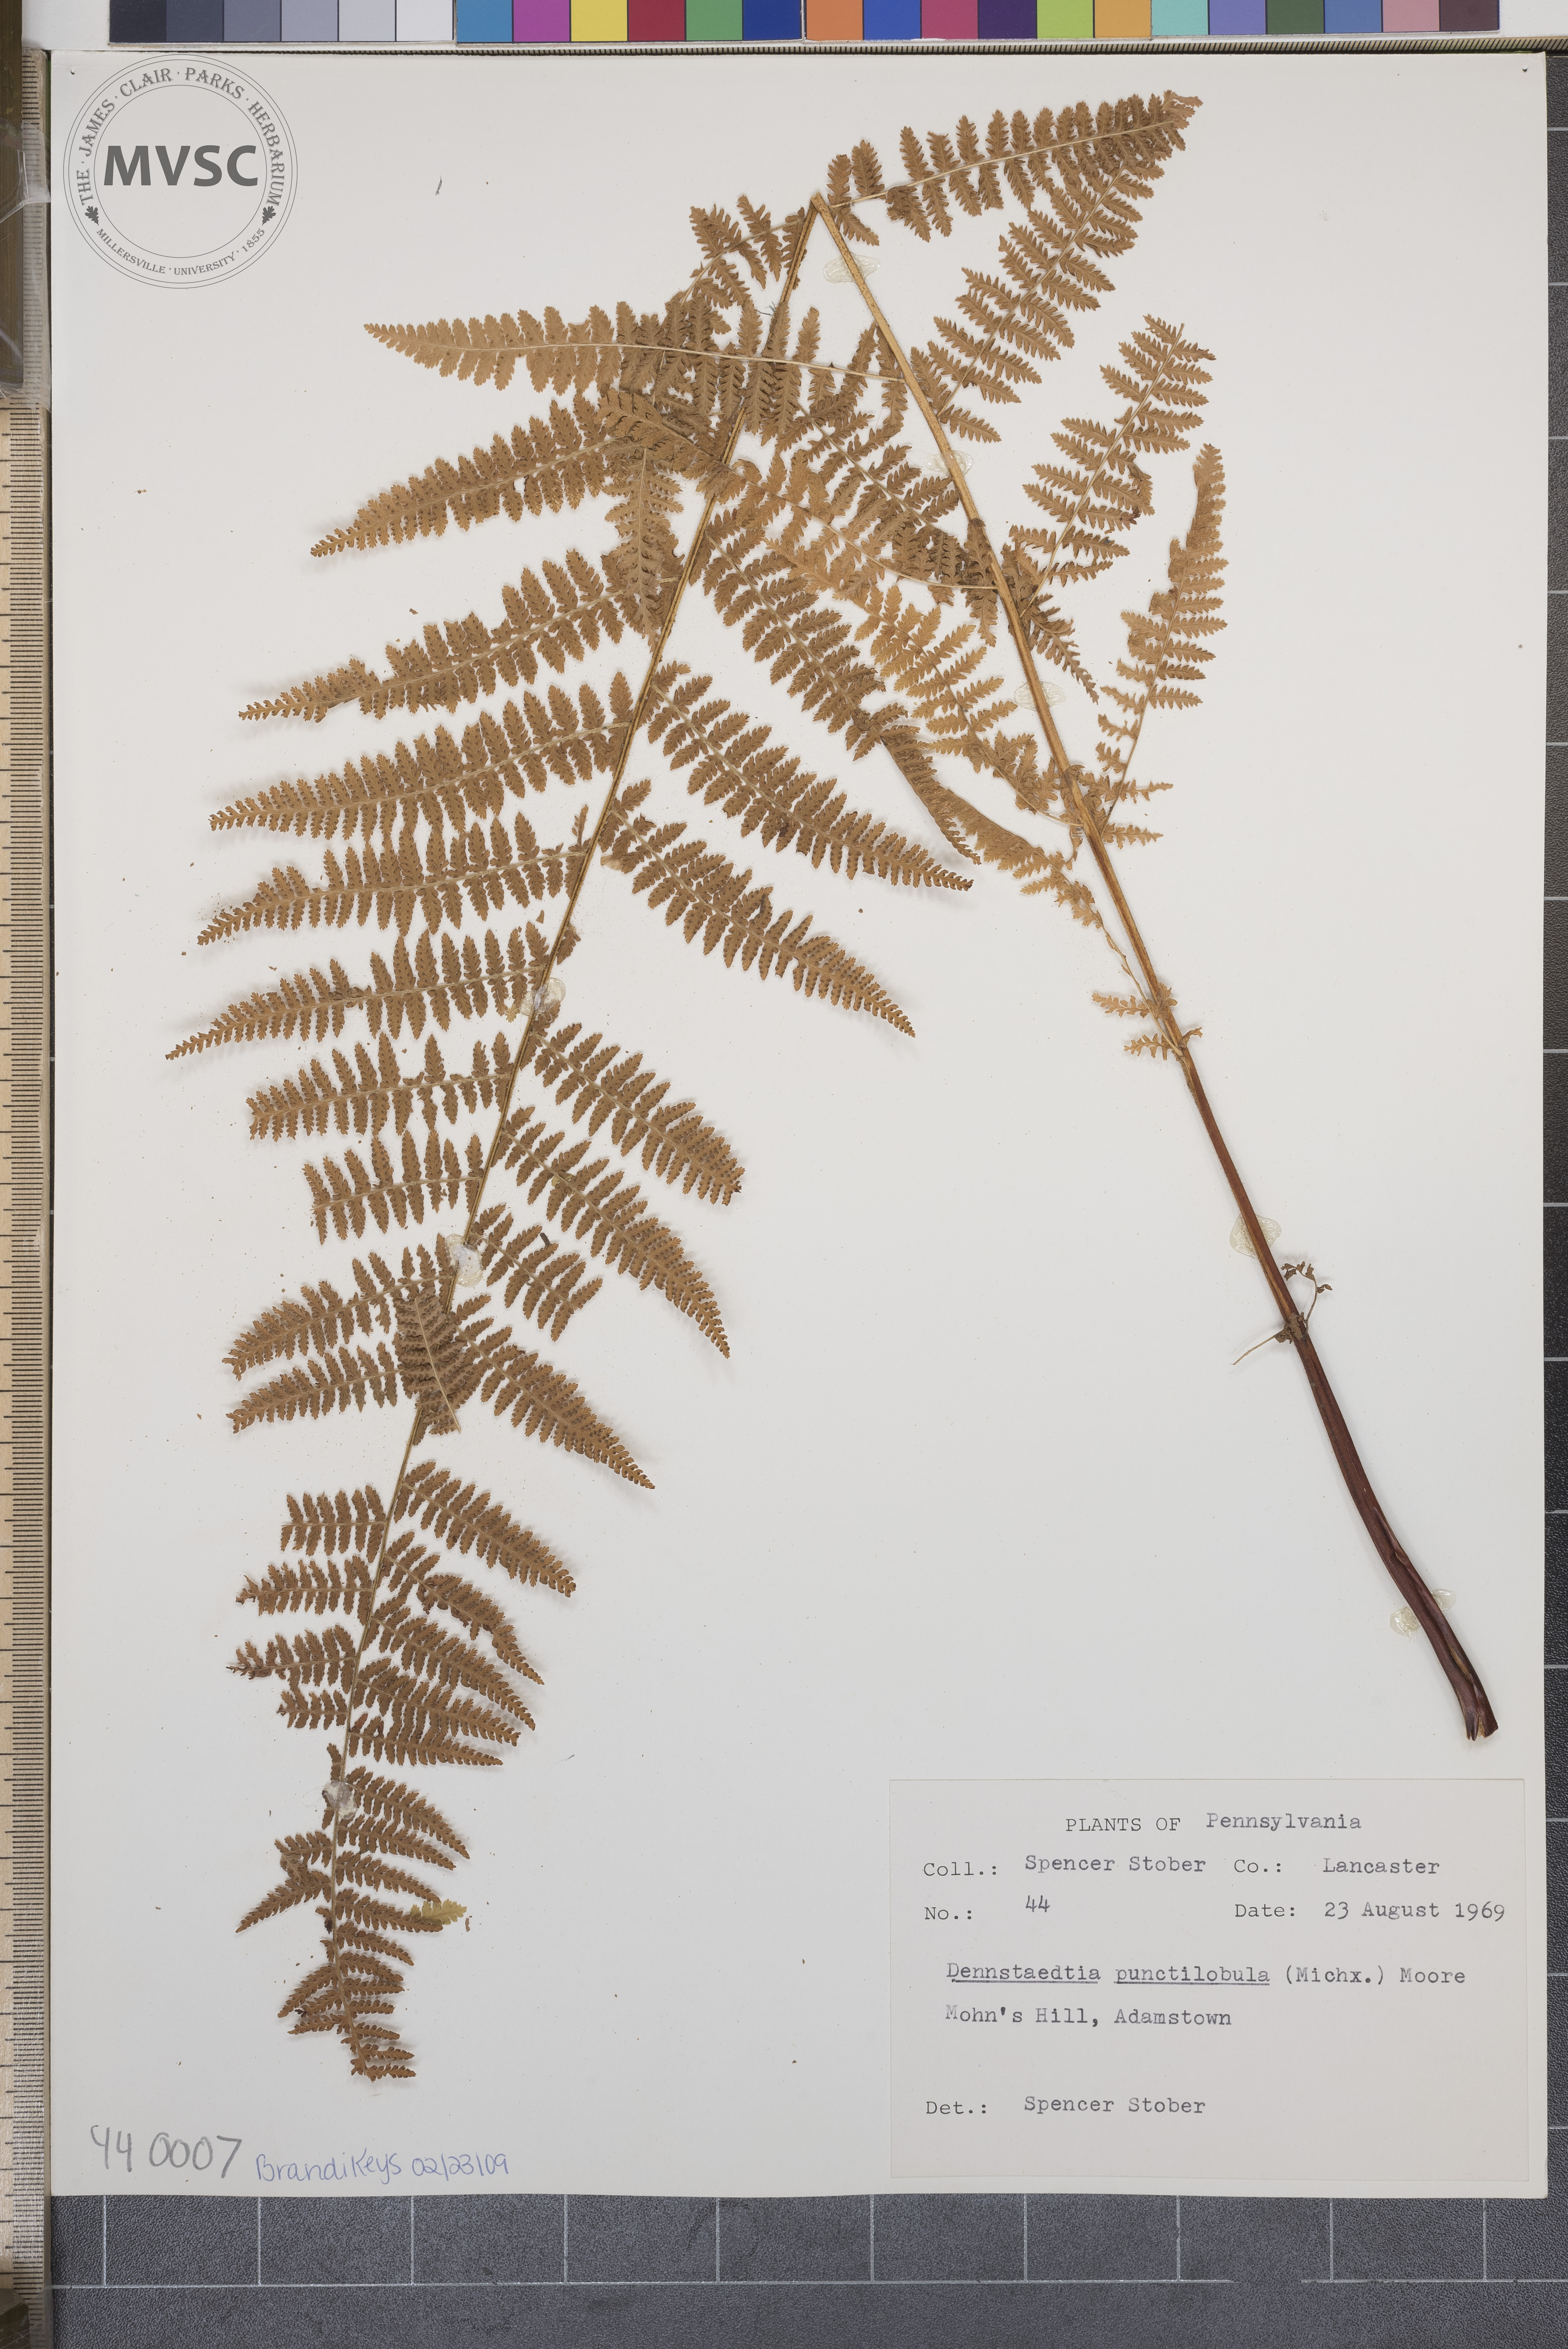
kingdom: Plantae
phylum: Tracheophyta
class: Polypodiopsida
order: Polypodiales
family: Dennstaedtiaceae
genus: Sitobolium
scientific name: Sitobolium punctilobum
